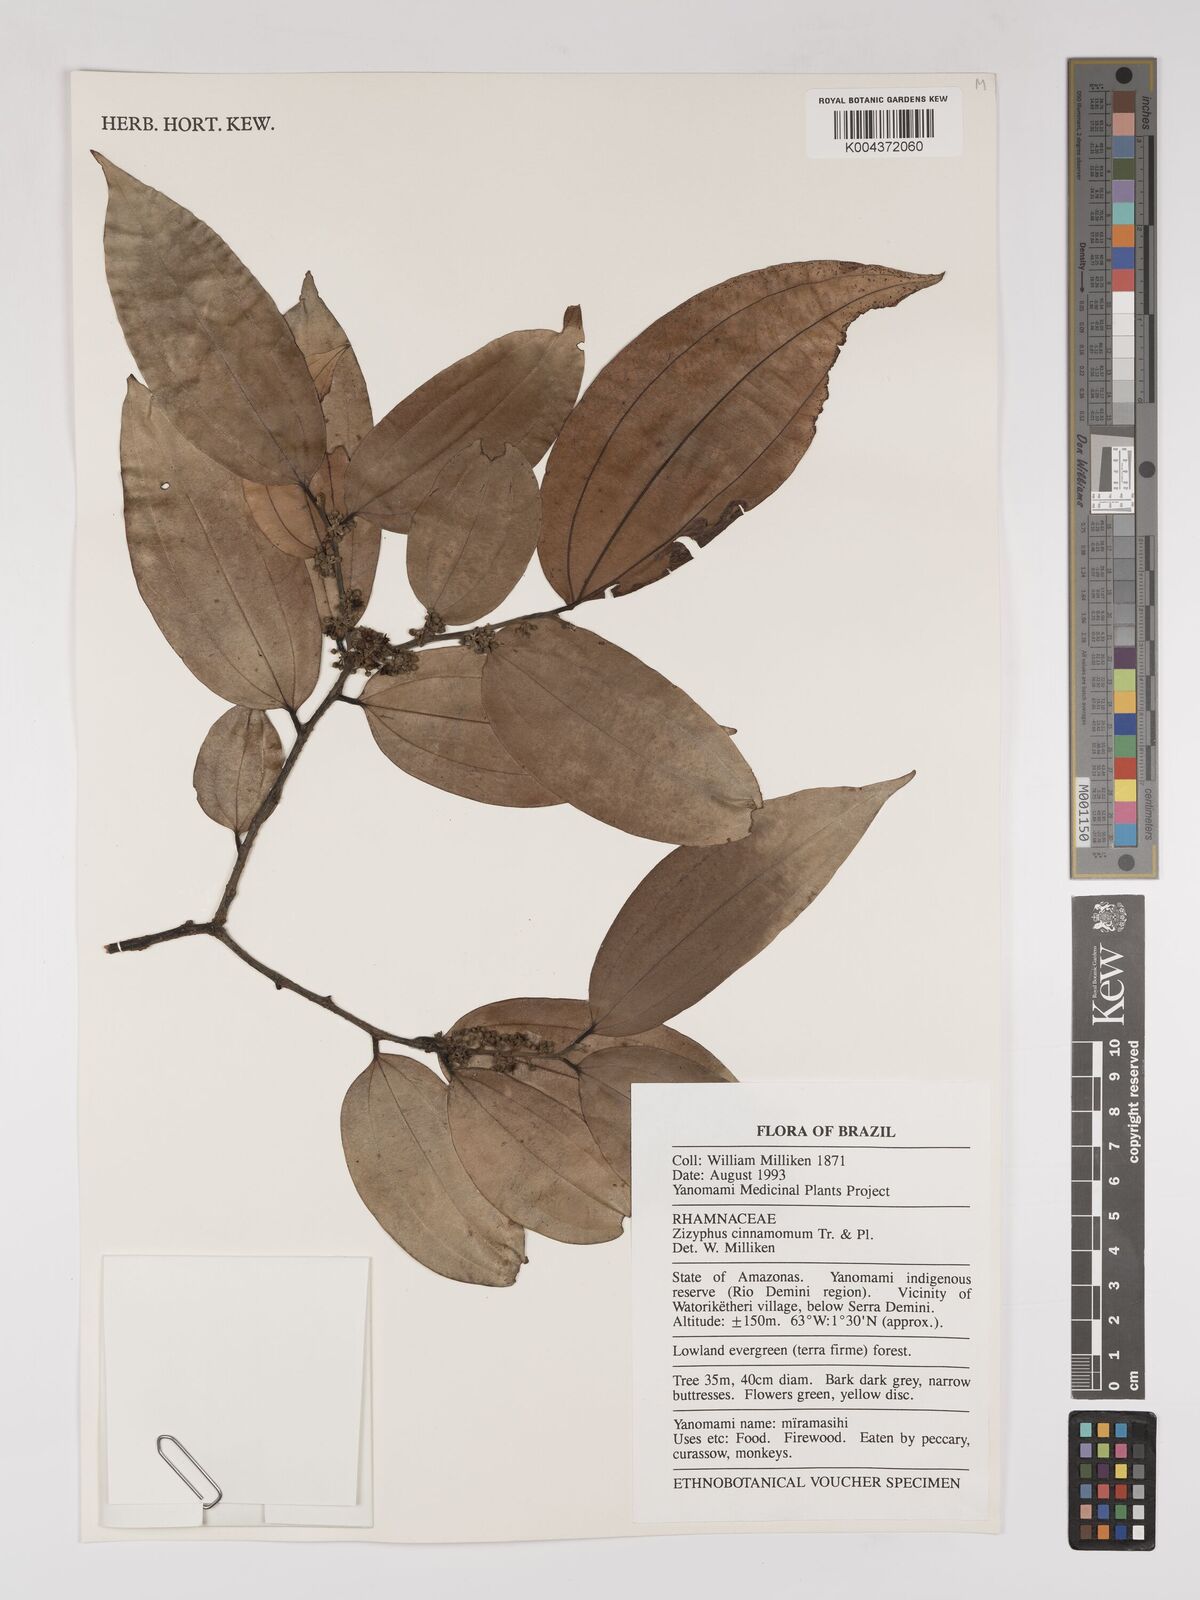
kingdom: Plantae
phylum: Tracheophyta
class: Magnoliopsida
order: Rosales
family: Rhamnaceae
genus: Sarcomphalus
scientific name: Sarcomphalus cinnamomum
